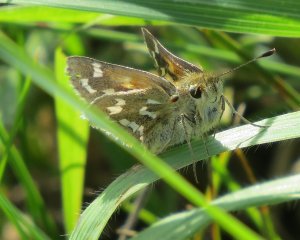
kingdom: Animalia
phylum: Arthropoda
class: Insecta
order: Lepidoptera
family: Hesperiidae
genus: Hesperia
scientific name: Hesperia comma
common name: Common Branded Skipper
